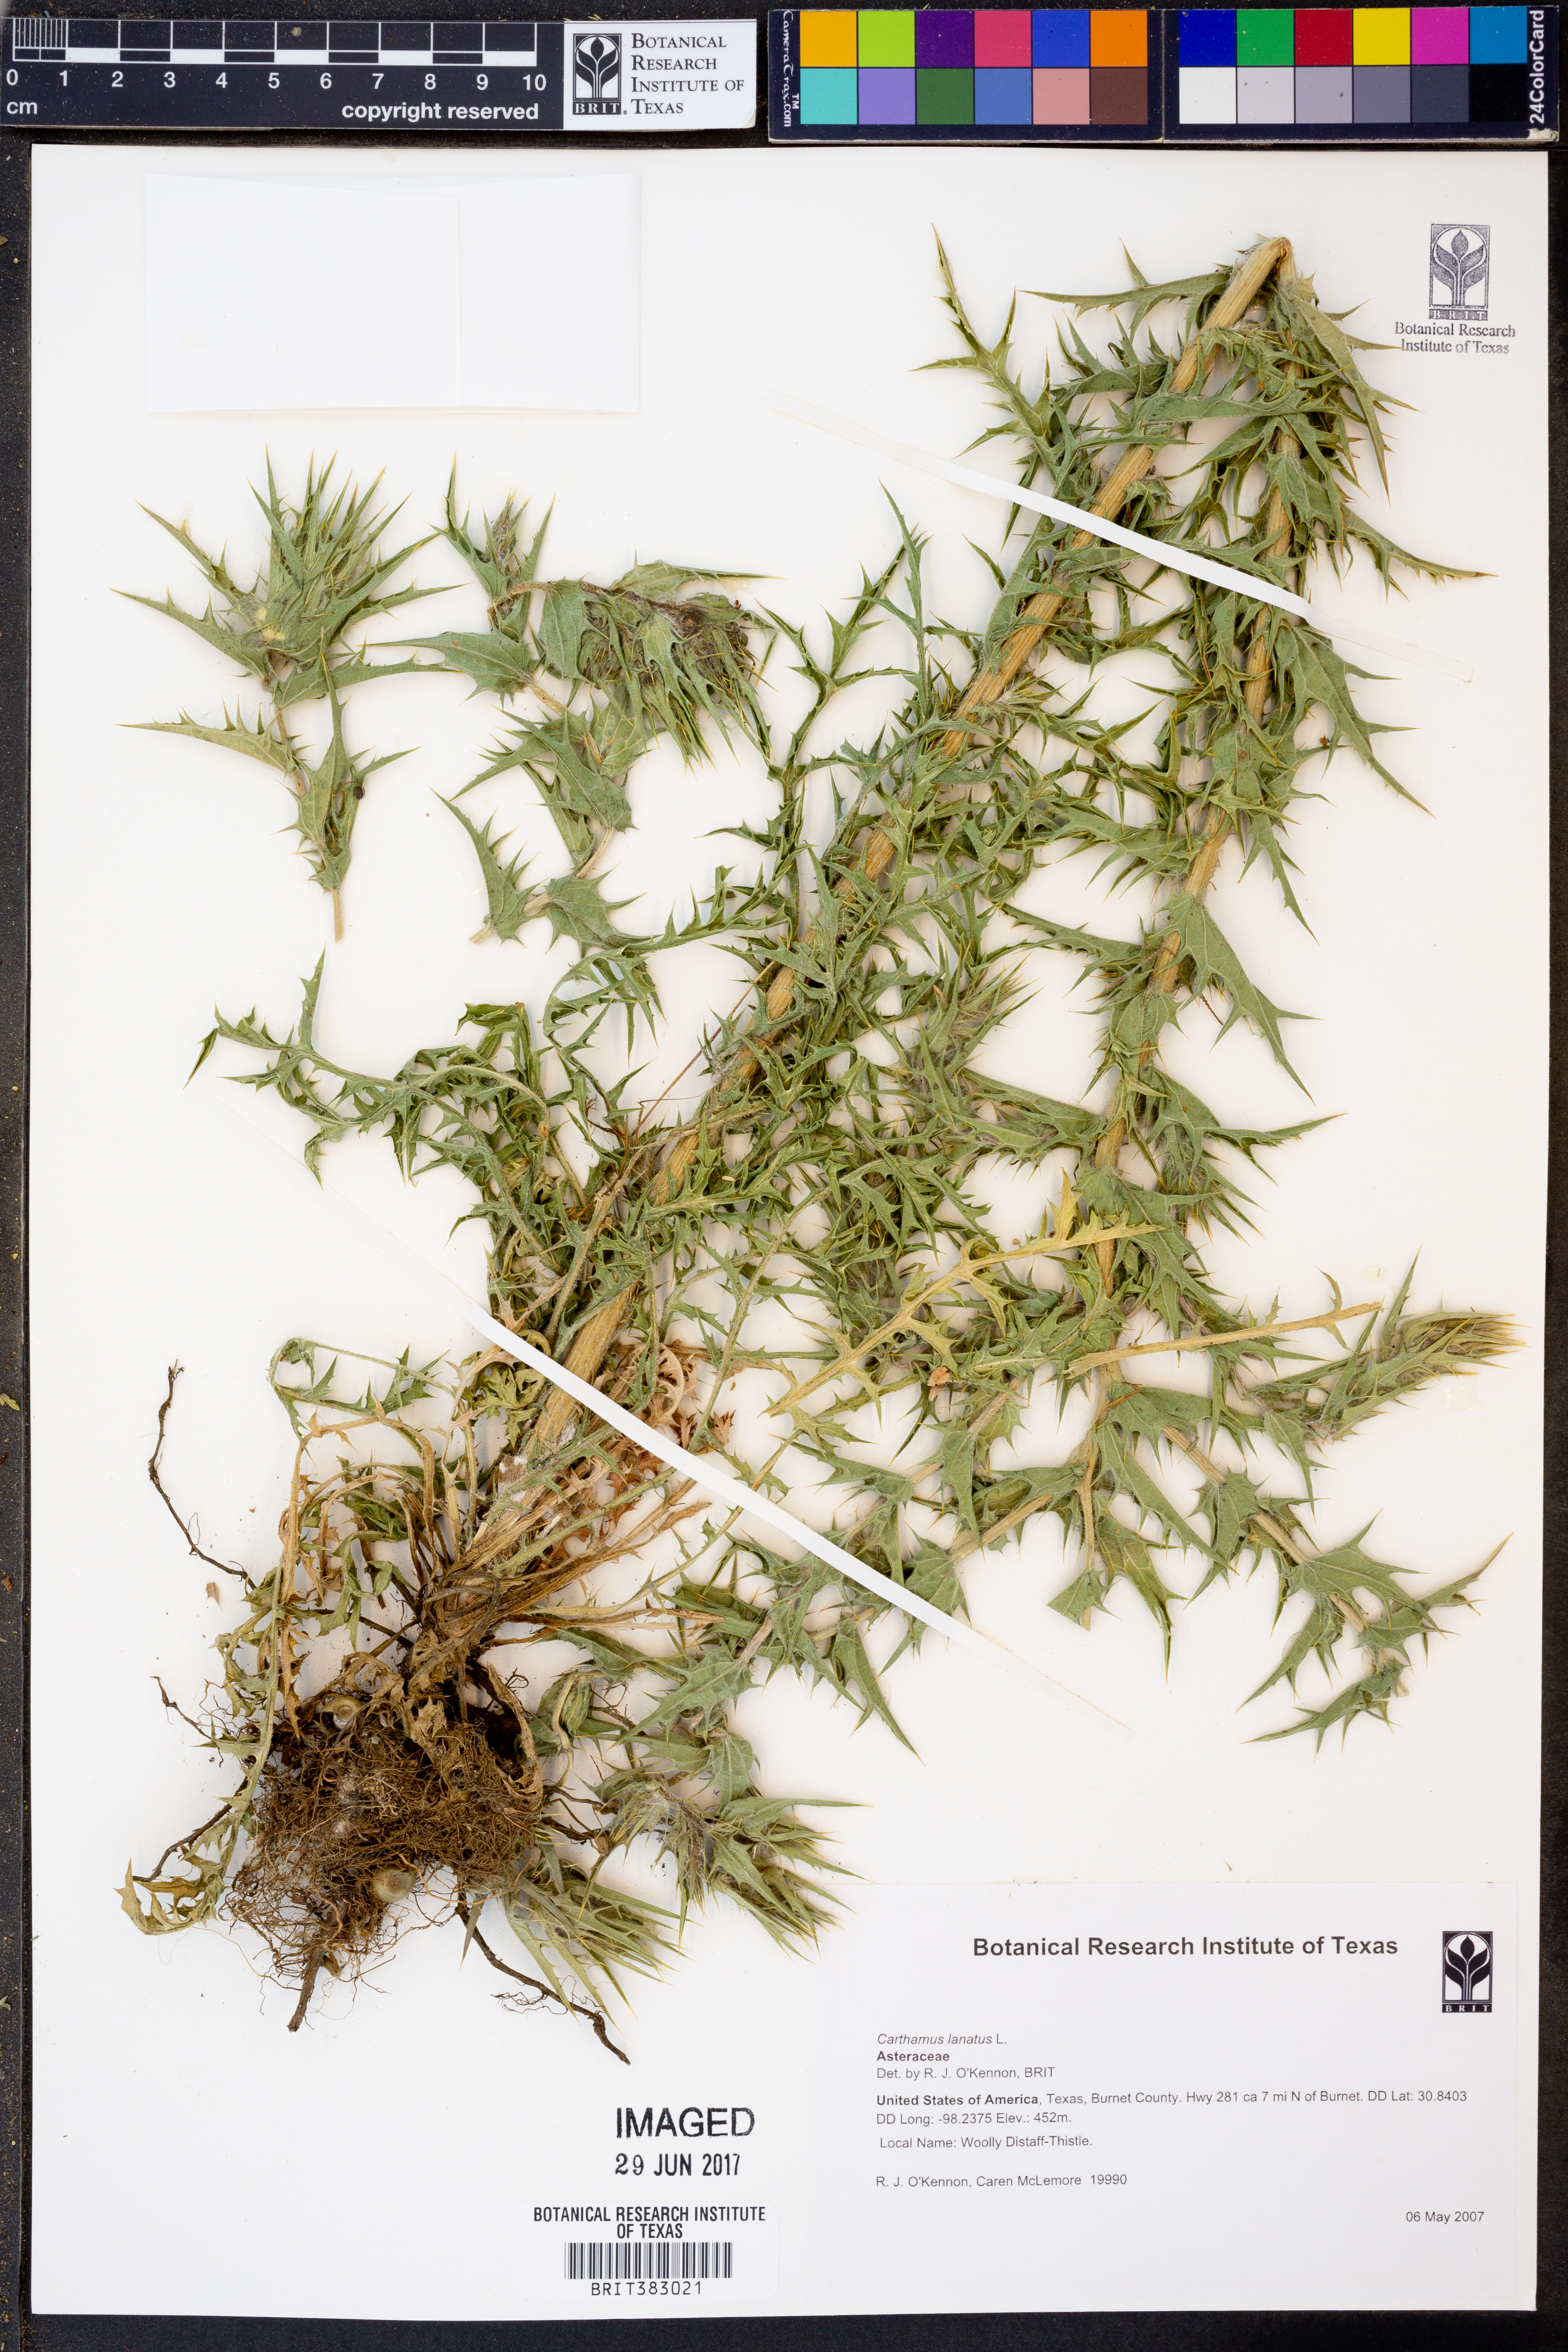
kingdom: Plantae
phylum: Tracheophyta
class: Magnoliopsida
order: Asterales
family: Asteraceae
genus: Carthamus
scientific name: Carthamus lanatus
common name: Downy safflower
